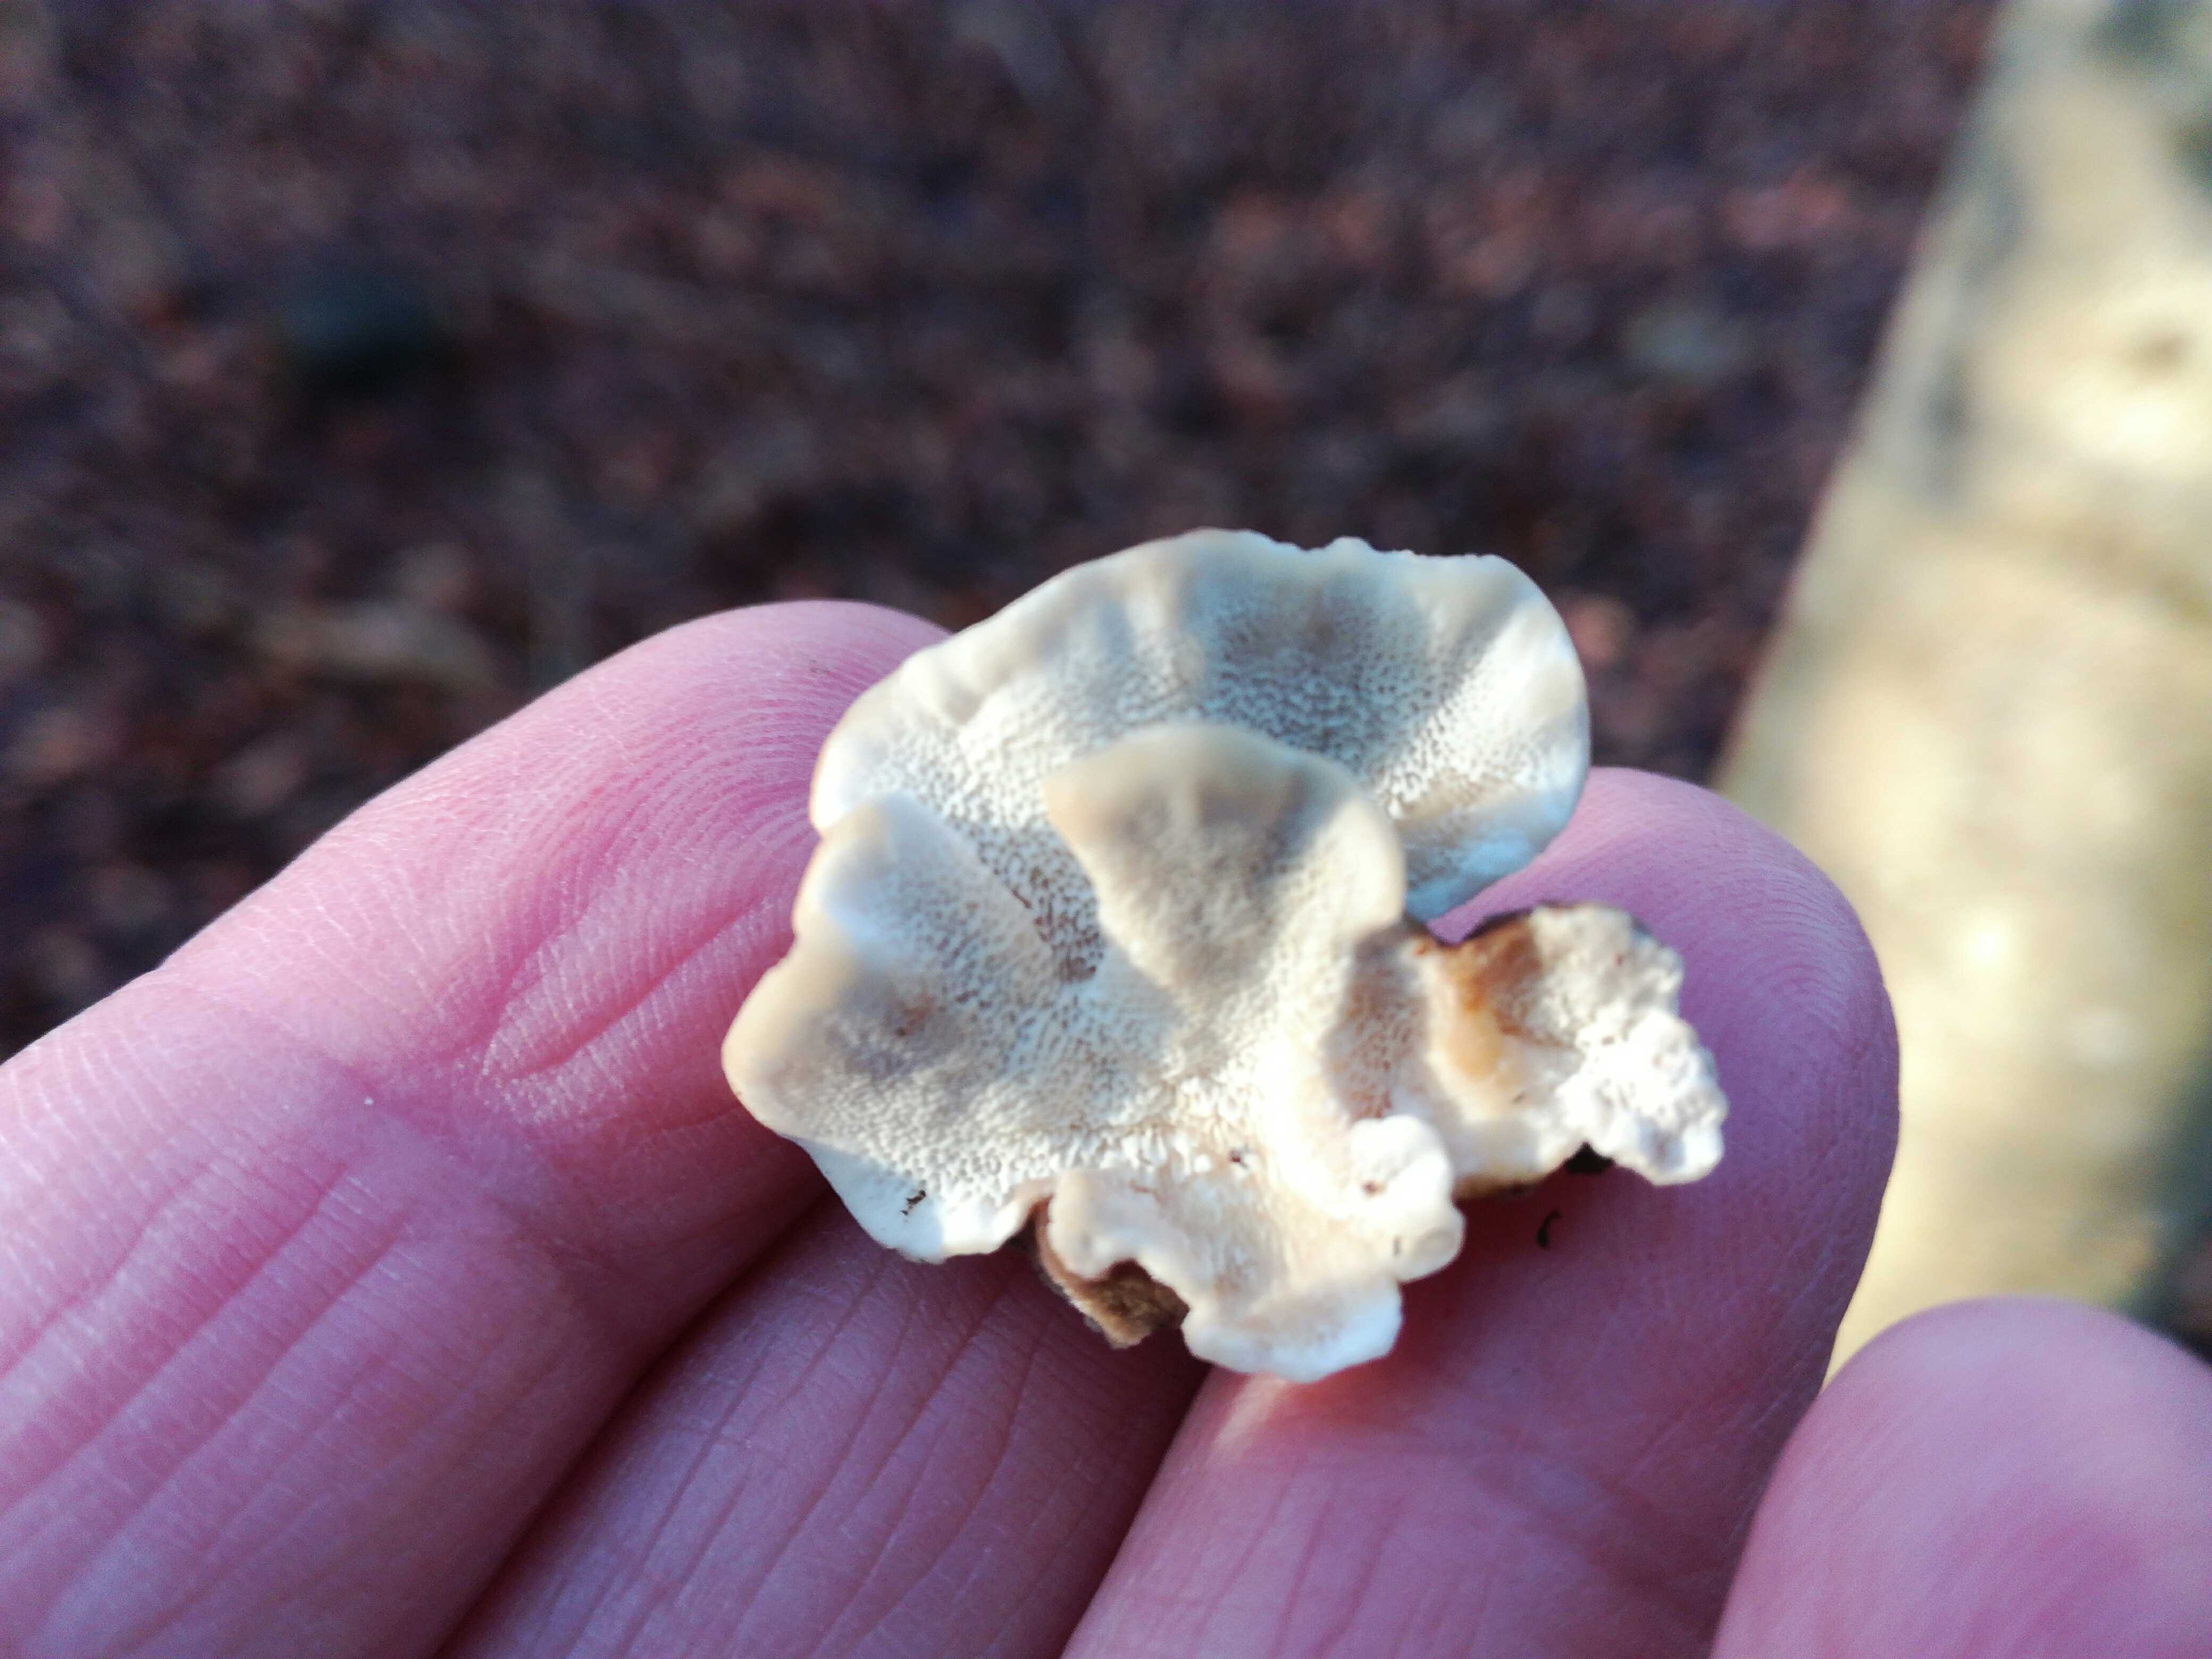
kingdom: Fungi
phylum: Basidiomycota
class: Agaricomycetes
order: Polyporales
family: Polyporaceae
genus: Trametes
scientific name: Trametes versicolor
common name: broget læderporesvamp
